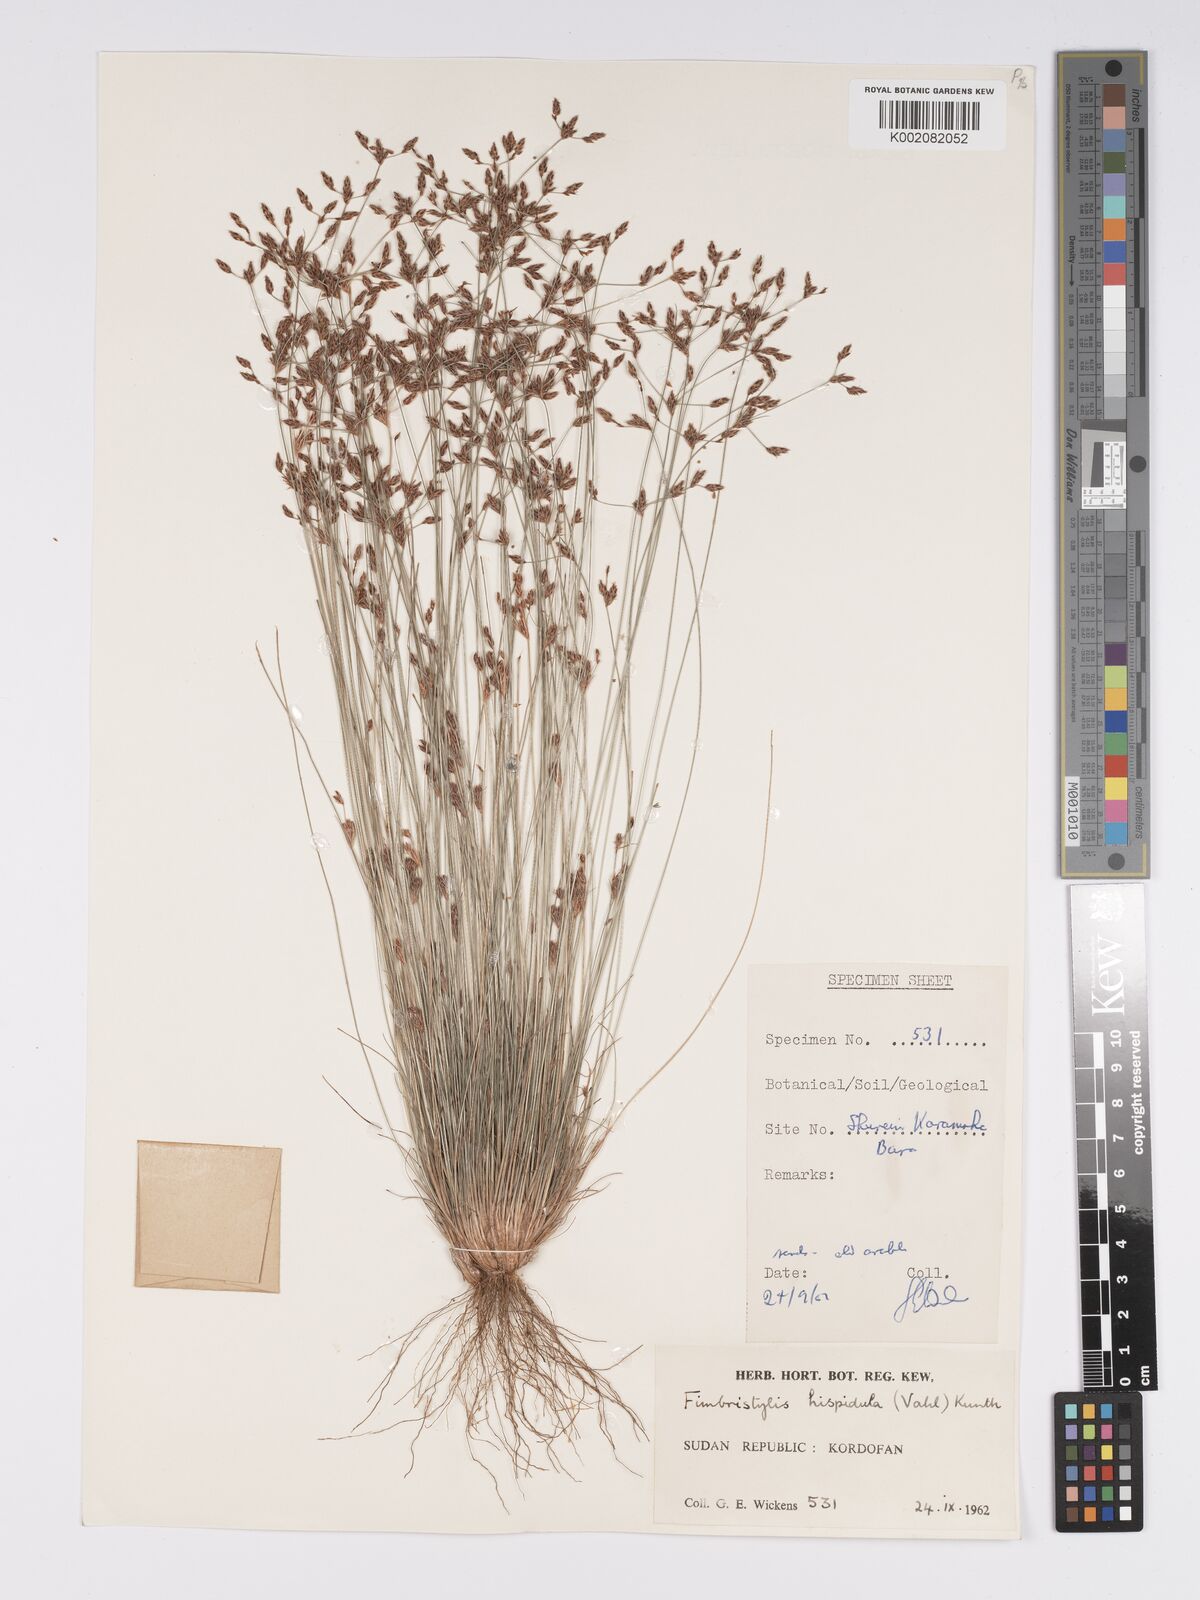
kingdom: Plantae
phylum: Tracheophyta
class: Liliopsida
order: Poales
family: Cyperaceae
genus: Bulbostylis
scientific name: Bulbostylis hispidula
